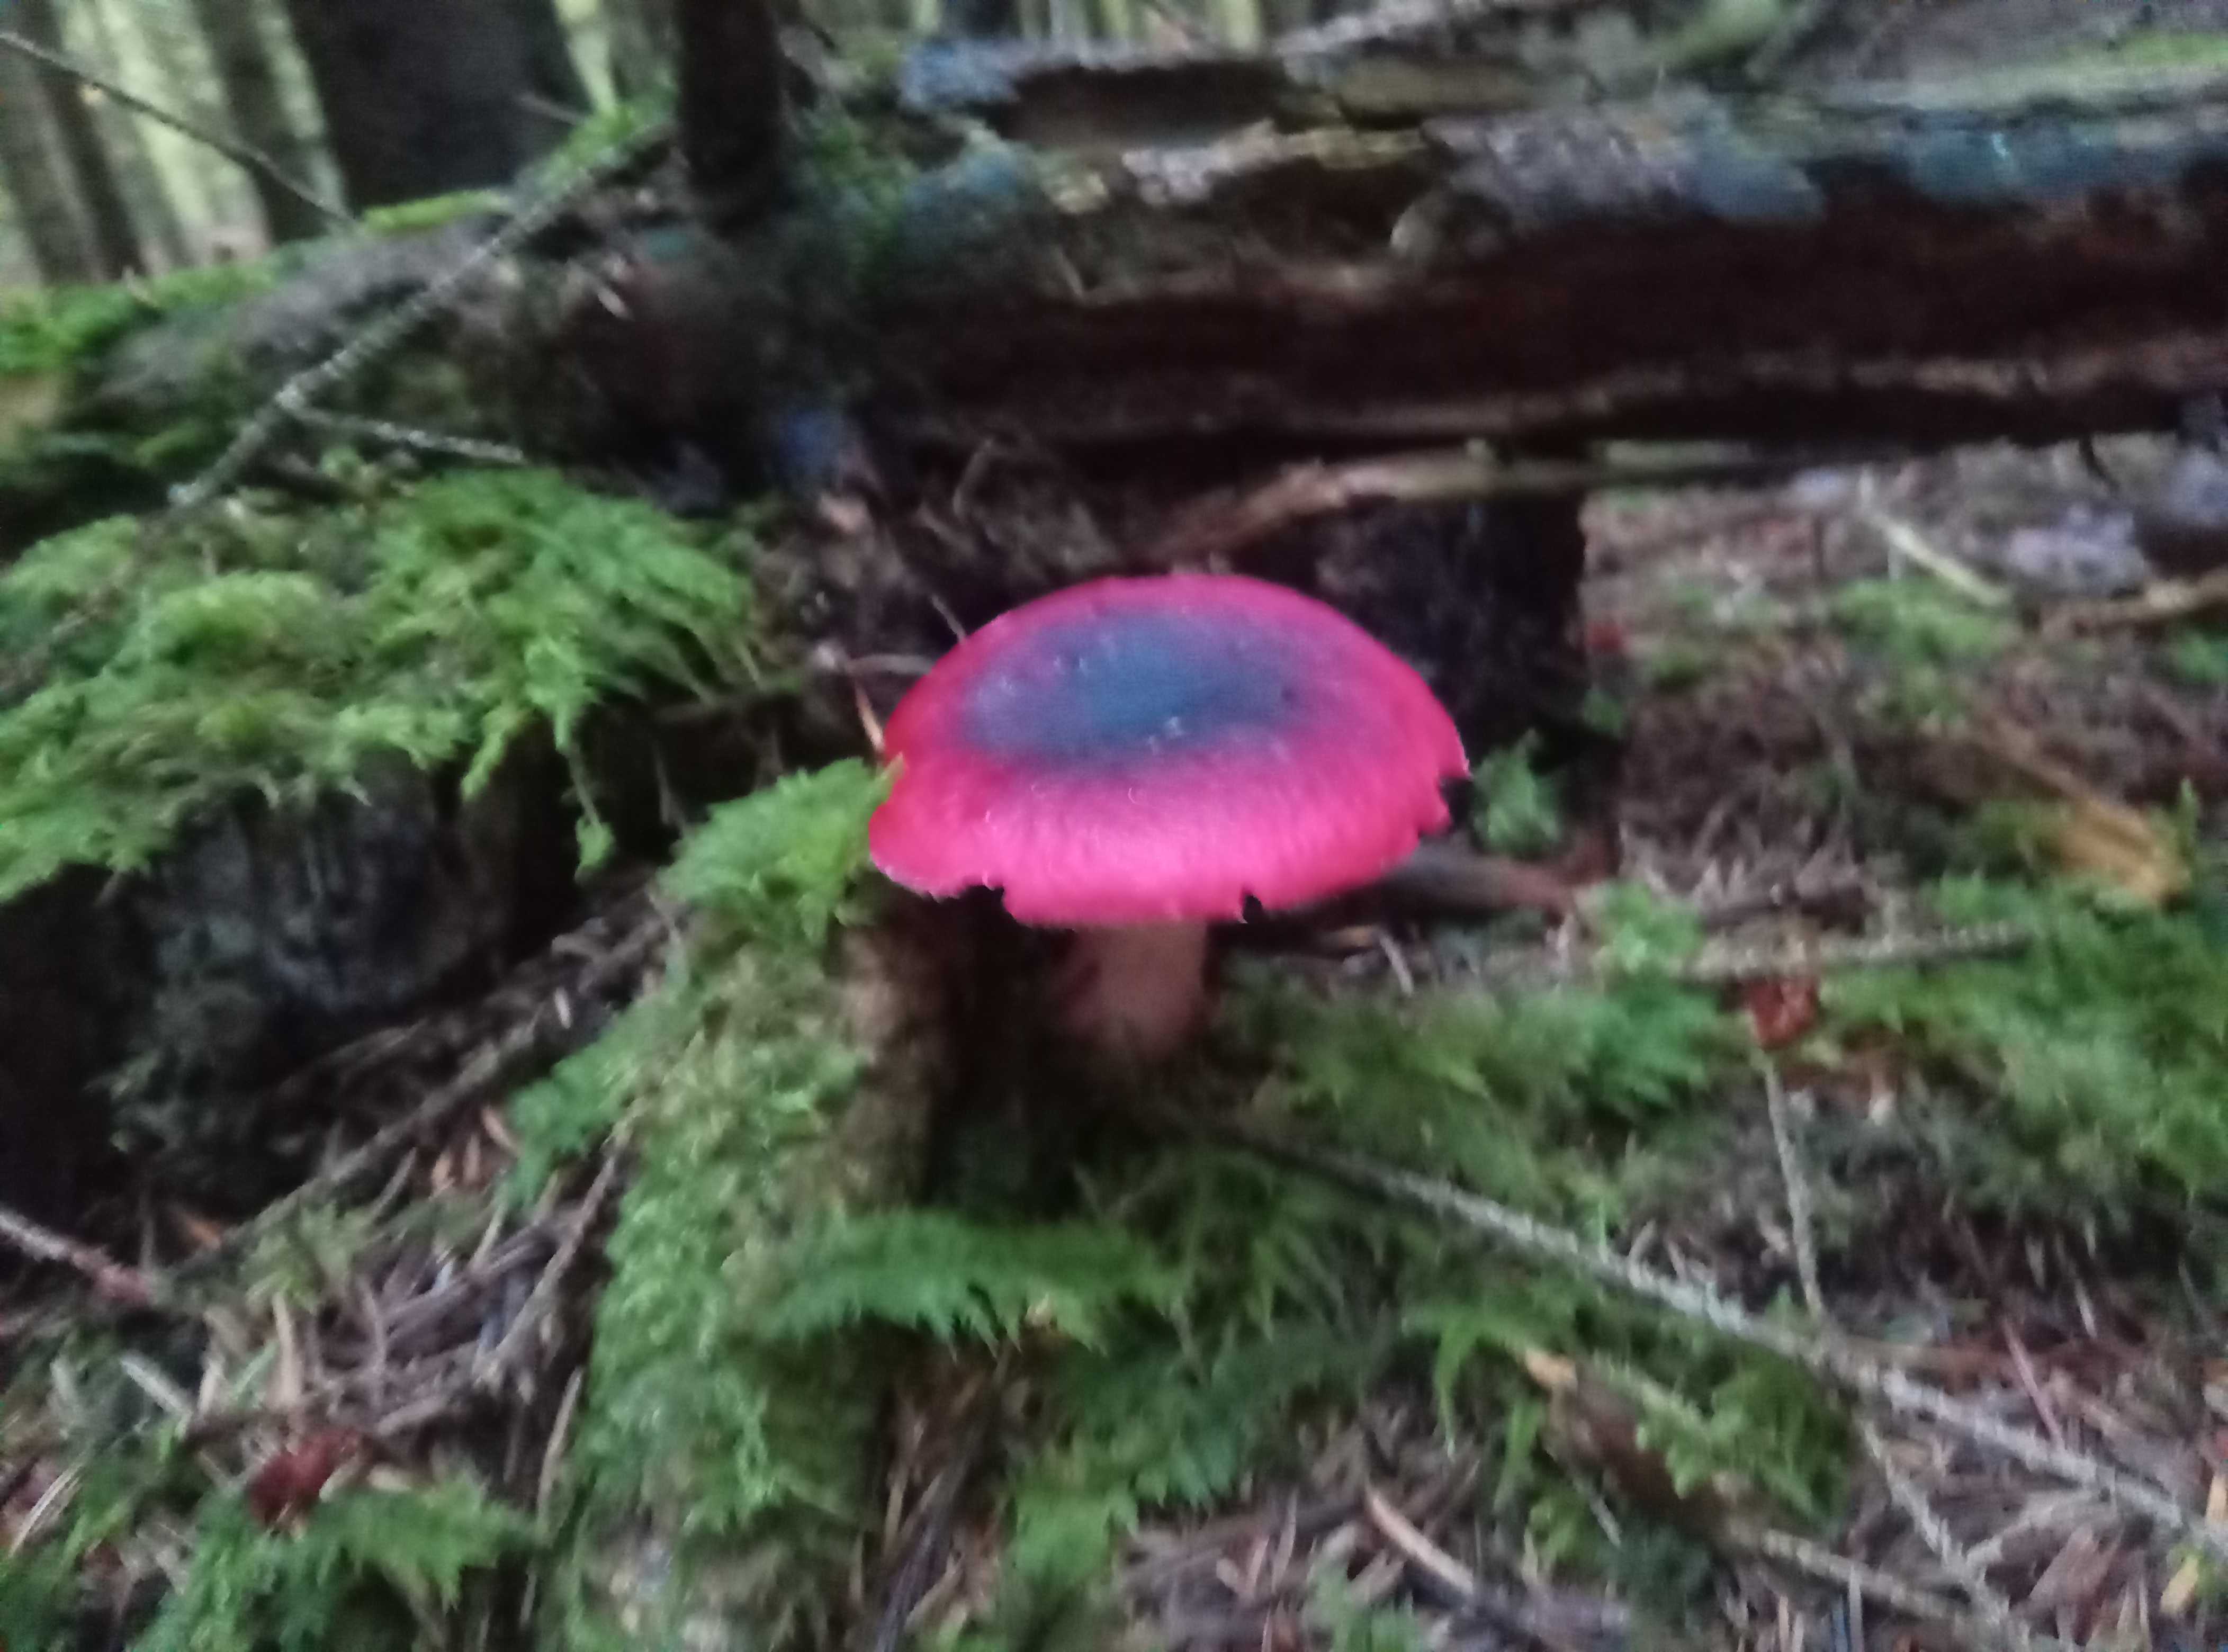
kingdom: Fungi
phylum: Basidiomycota
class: Agaricomycetes
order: Russulales
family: Russulaceae
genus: Russula
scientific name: Russula xerampelina
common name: hummer-skørhat
